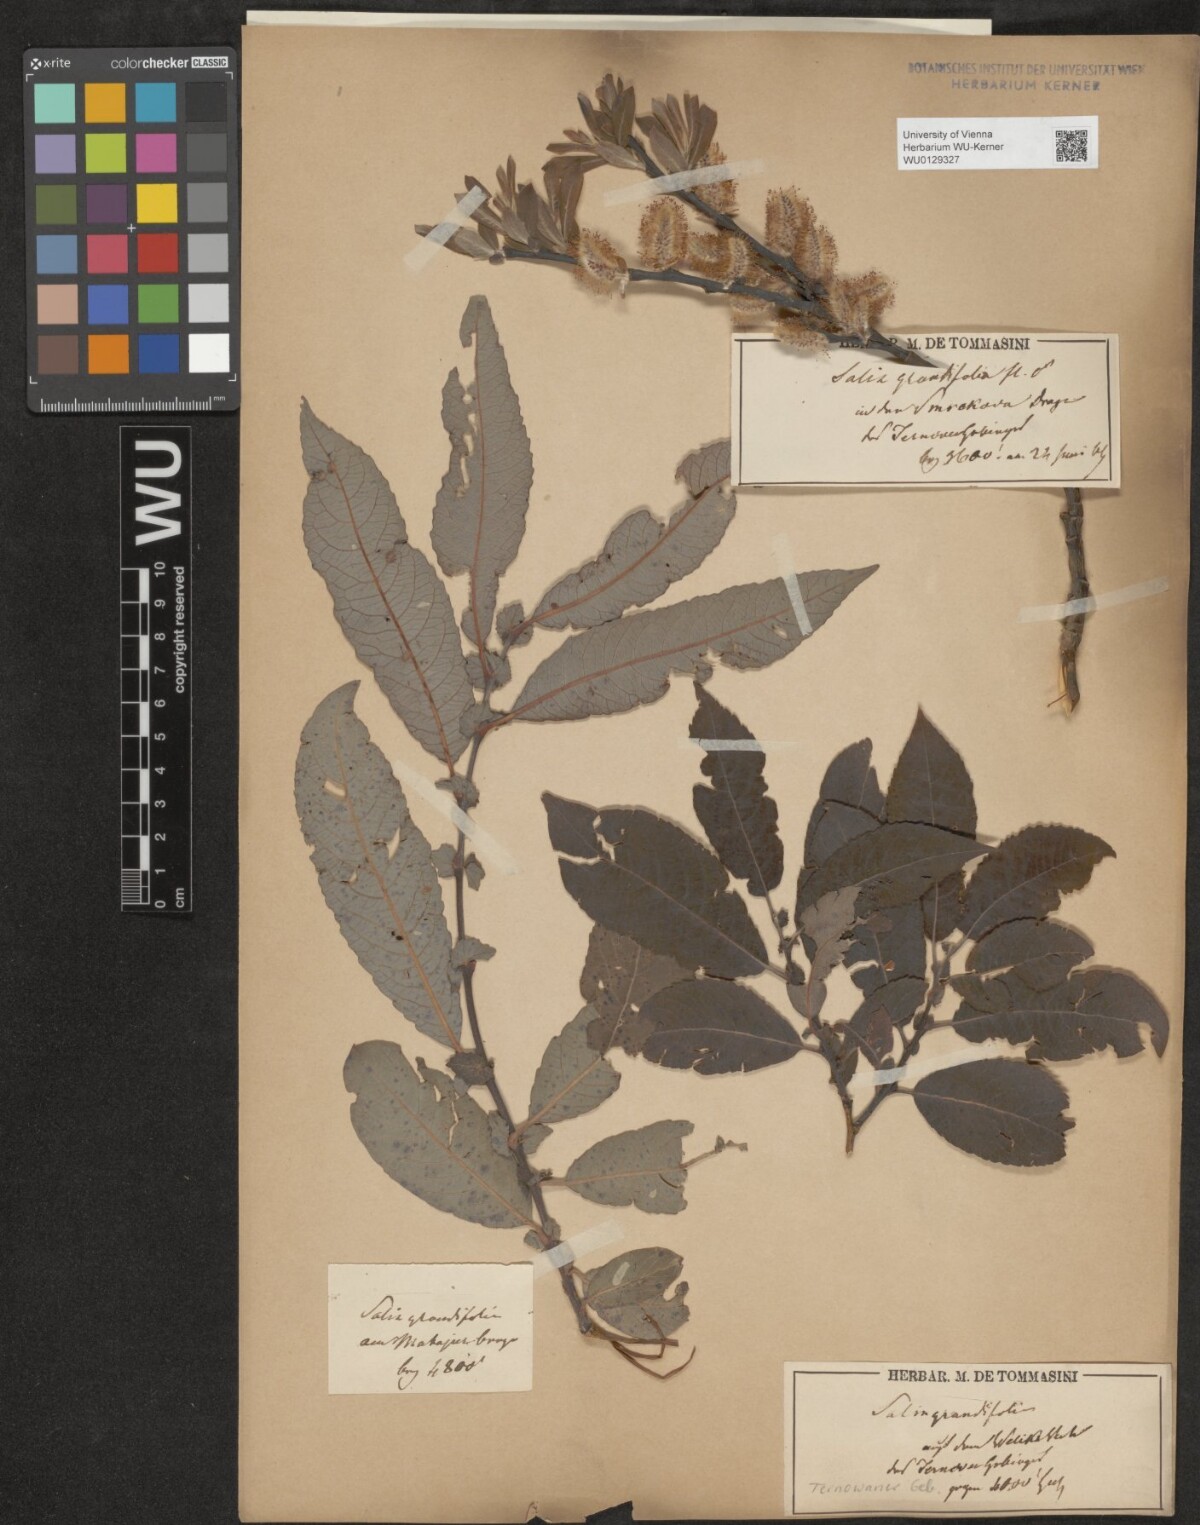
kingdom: Plantae
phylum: Tracheophyta
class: Magnoliopsida
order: Malpighiales
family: Salicaceae
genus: Salix
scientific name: Salix appendiculata
